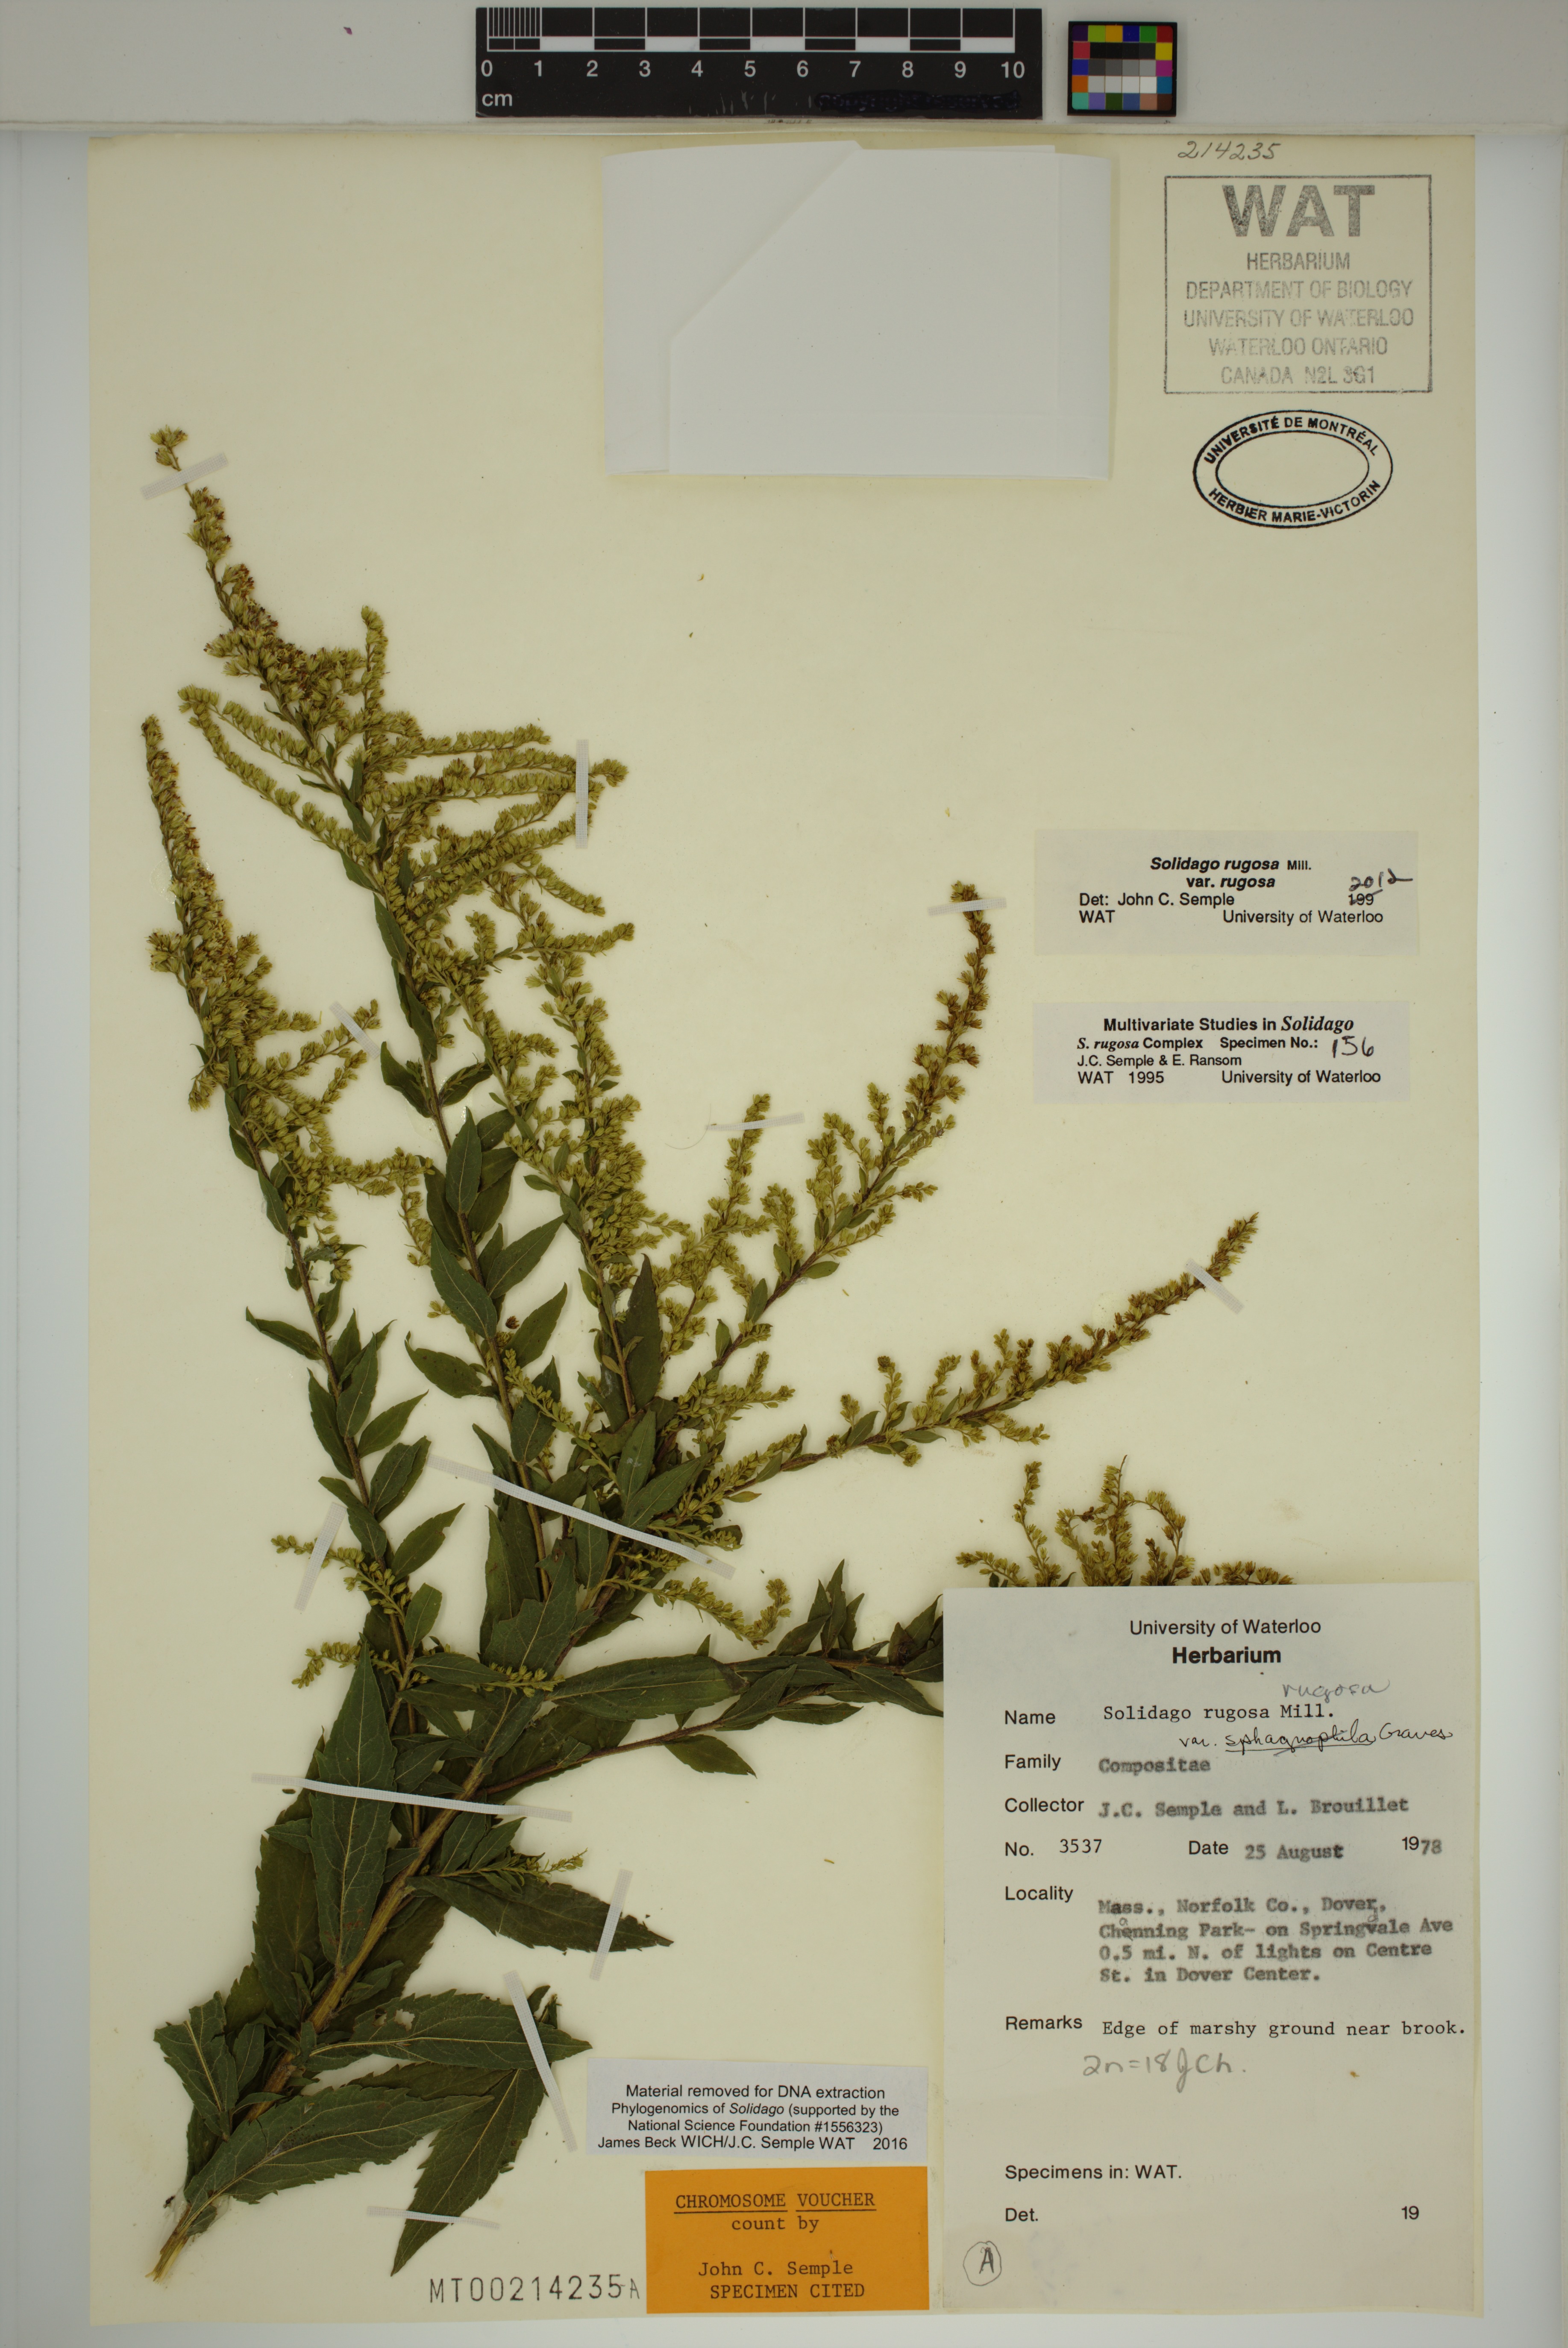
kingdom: Plantae
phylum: Tracheophyta
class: Magnoliopsida
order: Asterales
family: Asteraceae
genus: Solidago
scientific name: Solidago rugosa
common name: Rough-stemmed goldenrod
